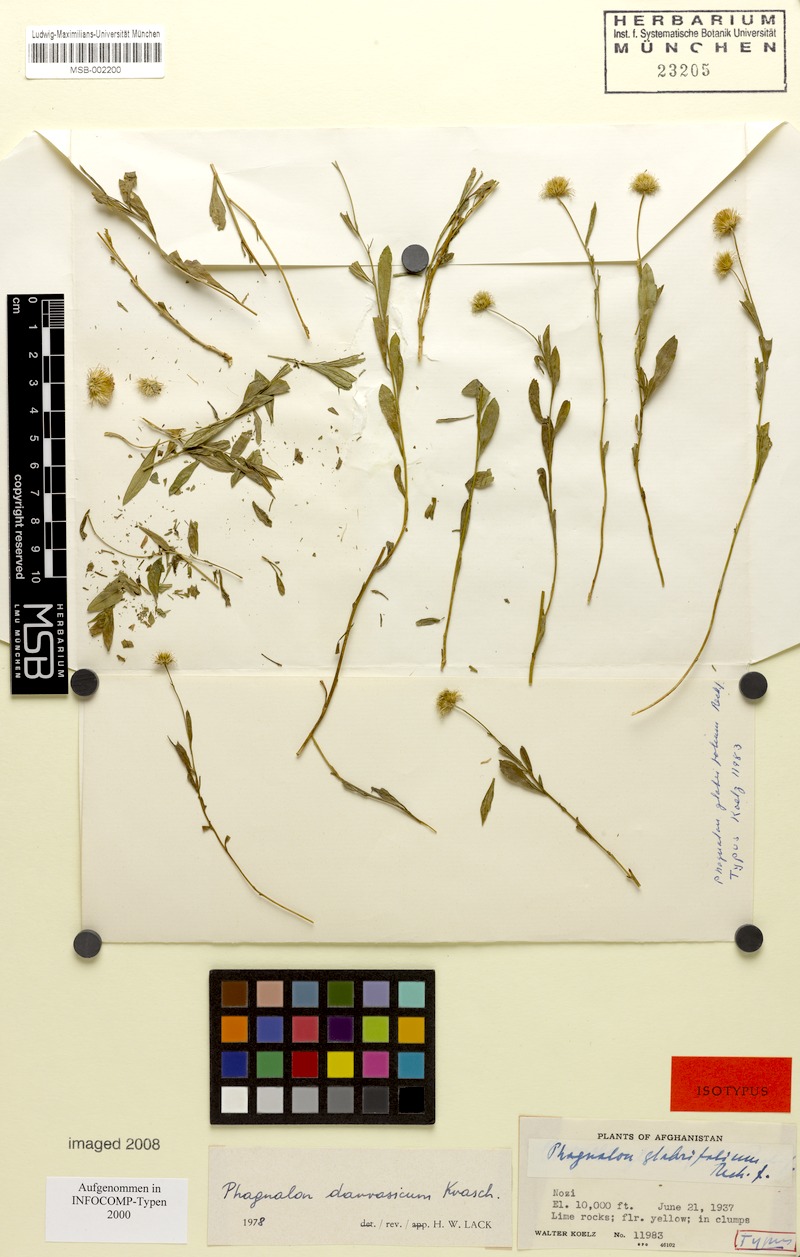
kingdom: Plantae
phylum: Tracheophyta
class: Magnoliopsida
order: Asterales
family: Asteraceae
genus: Phagnalon
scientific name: Phagnalon darvazicum
